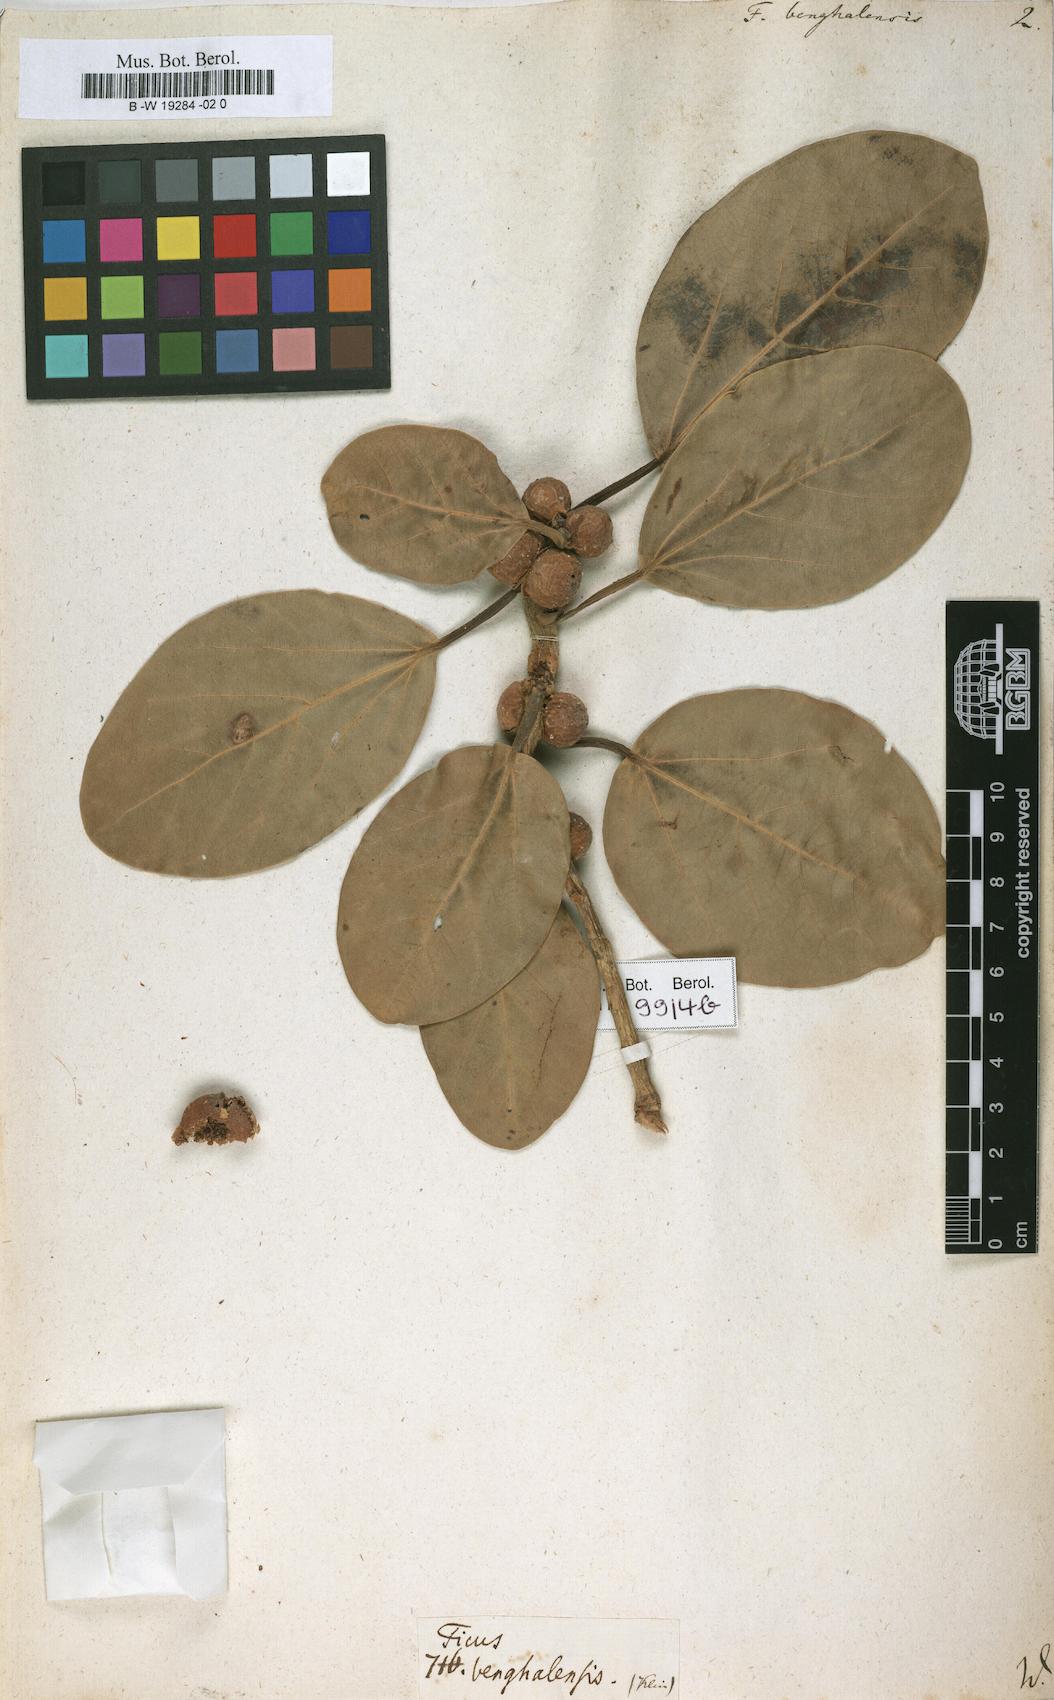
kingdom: Plantae
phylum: Tracheophyta
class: Magnoliopsida
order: Rosales
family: Moraceae
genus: Ficus
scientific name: Ficus benghalensis
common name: Indian banyan
